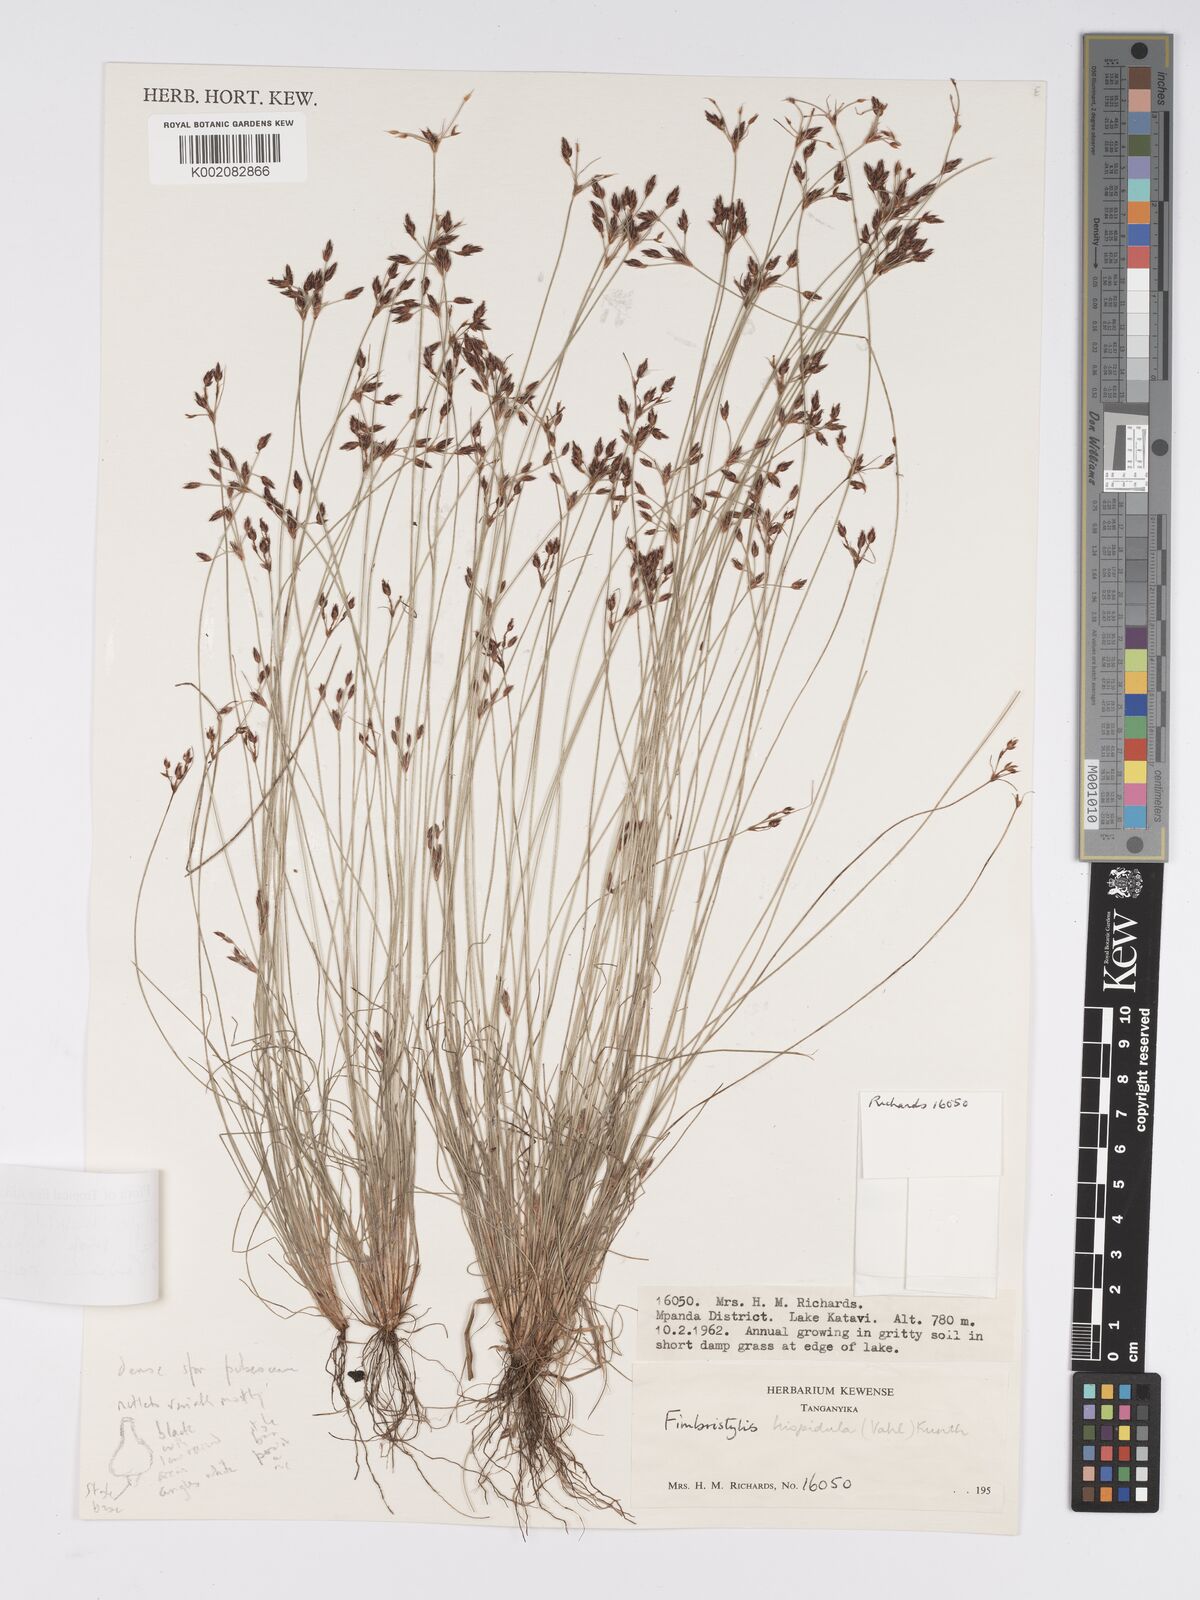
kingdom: Plantae
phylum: Tracheophyta
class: Liliopsida
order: Poales
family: Cyperaceae
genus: Bulbostylis
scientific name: Bulbostylis hispidula
